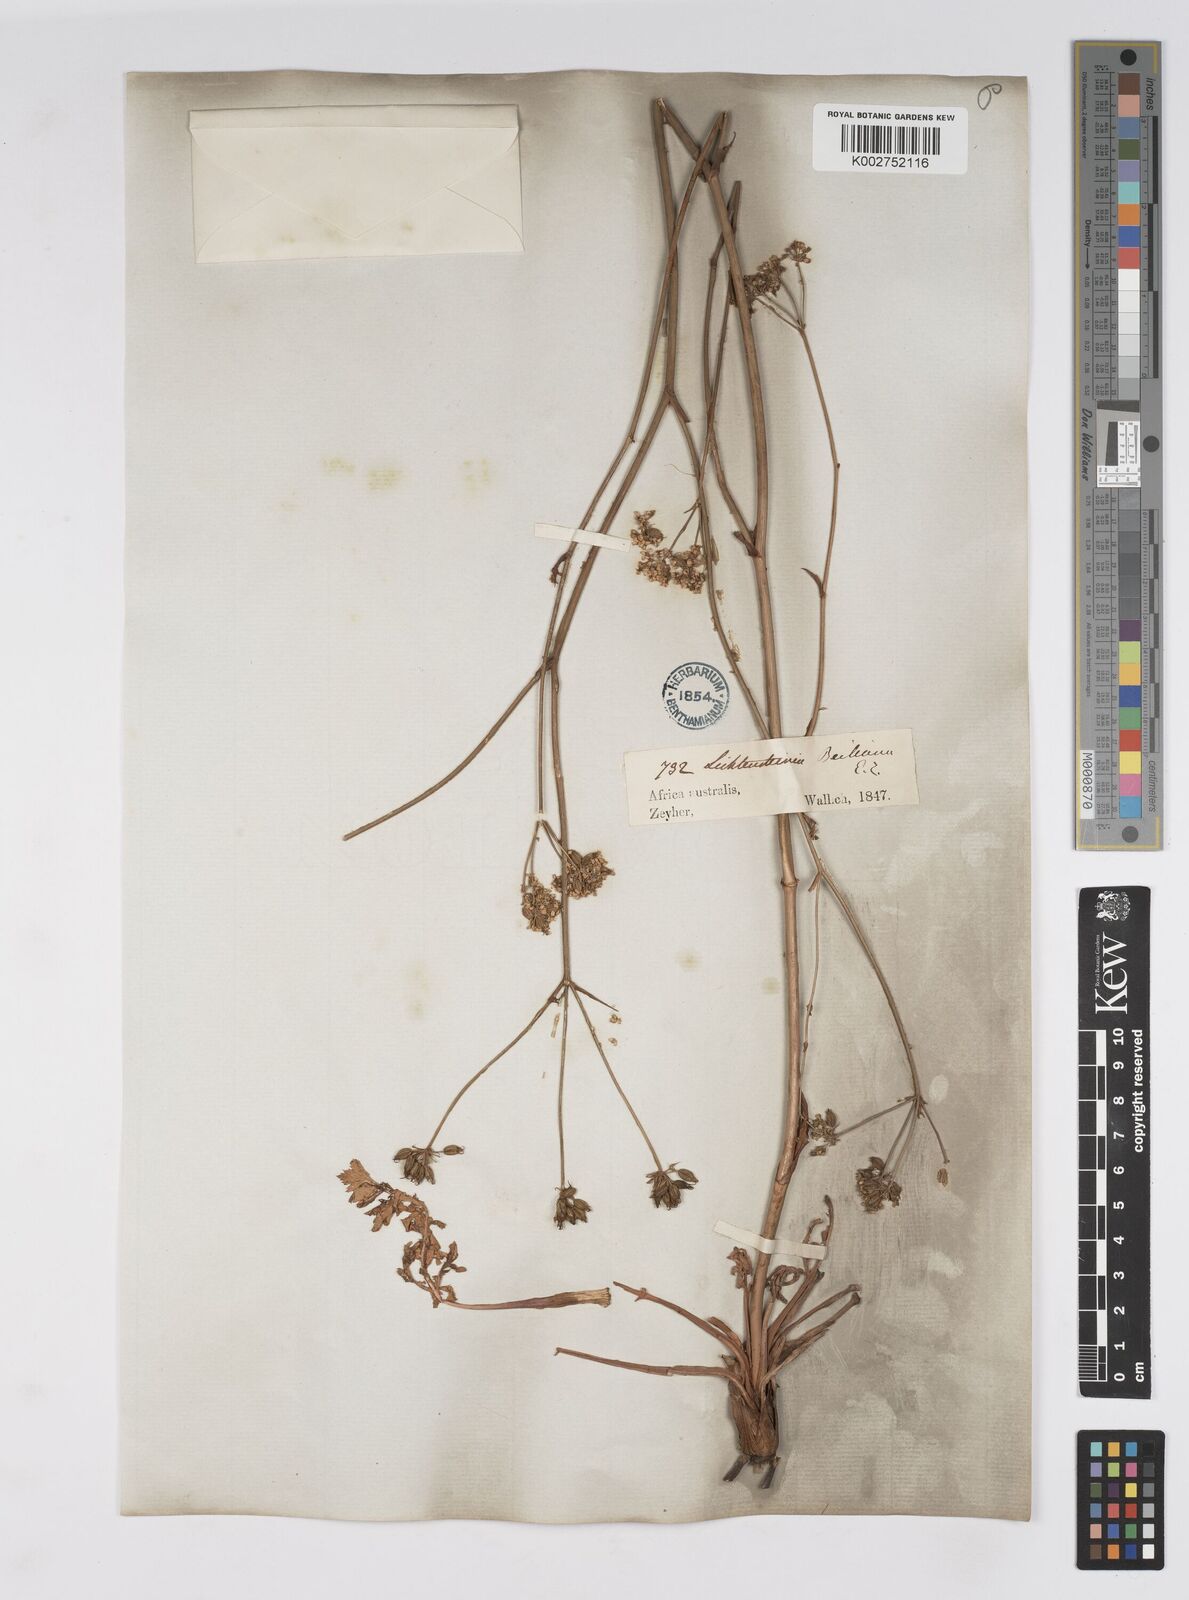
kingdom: Plantae
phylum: Tracheophyta
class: Magnoliopsida
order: Apiales
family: Apiaceae
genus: Lichtensteinia
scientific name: Lichtensteinia obscura
